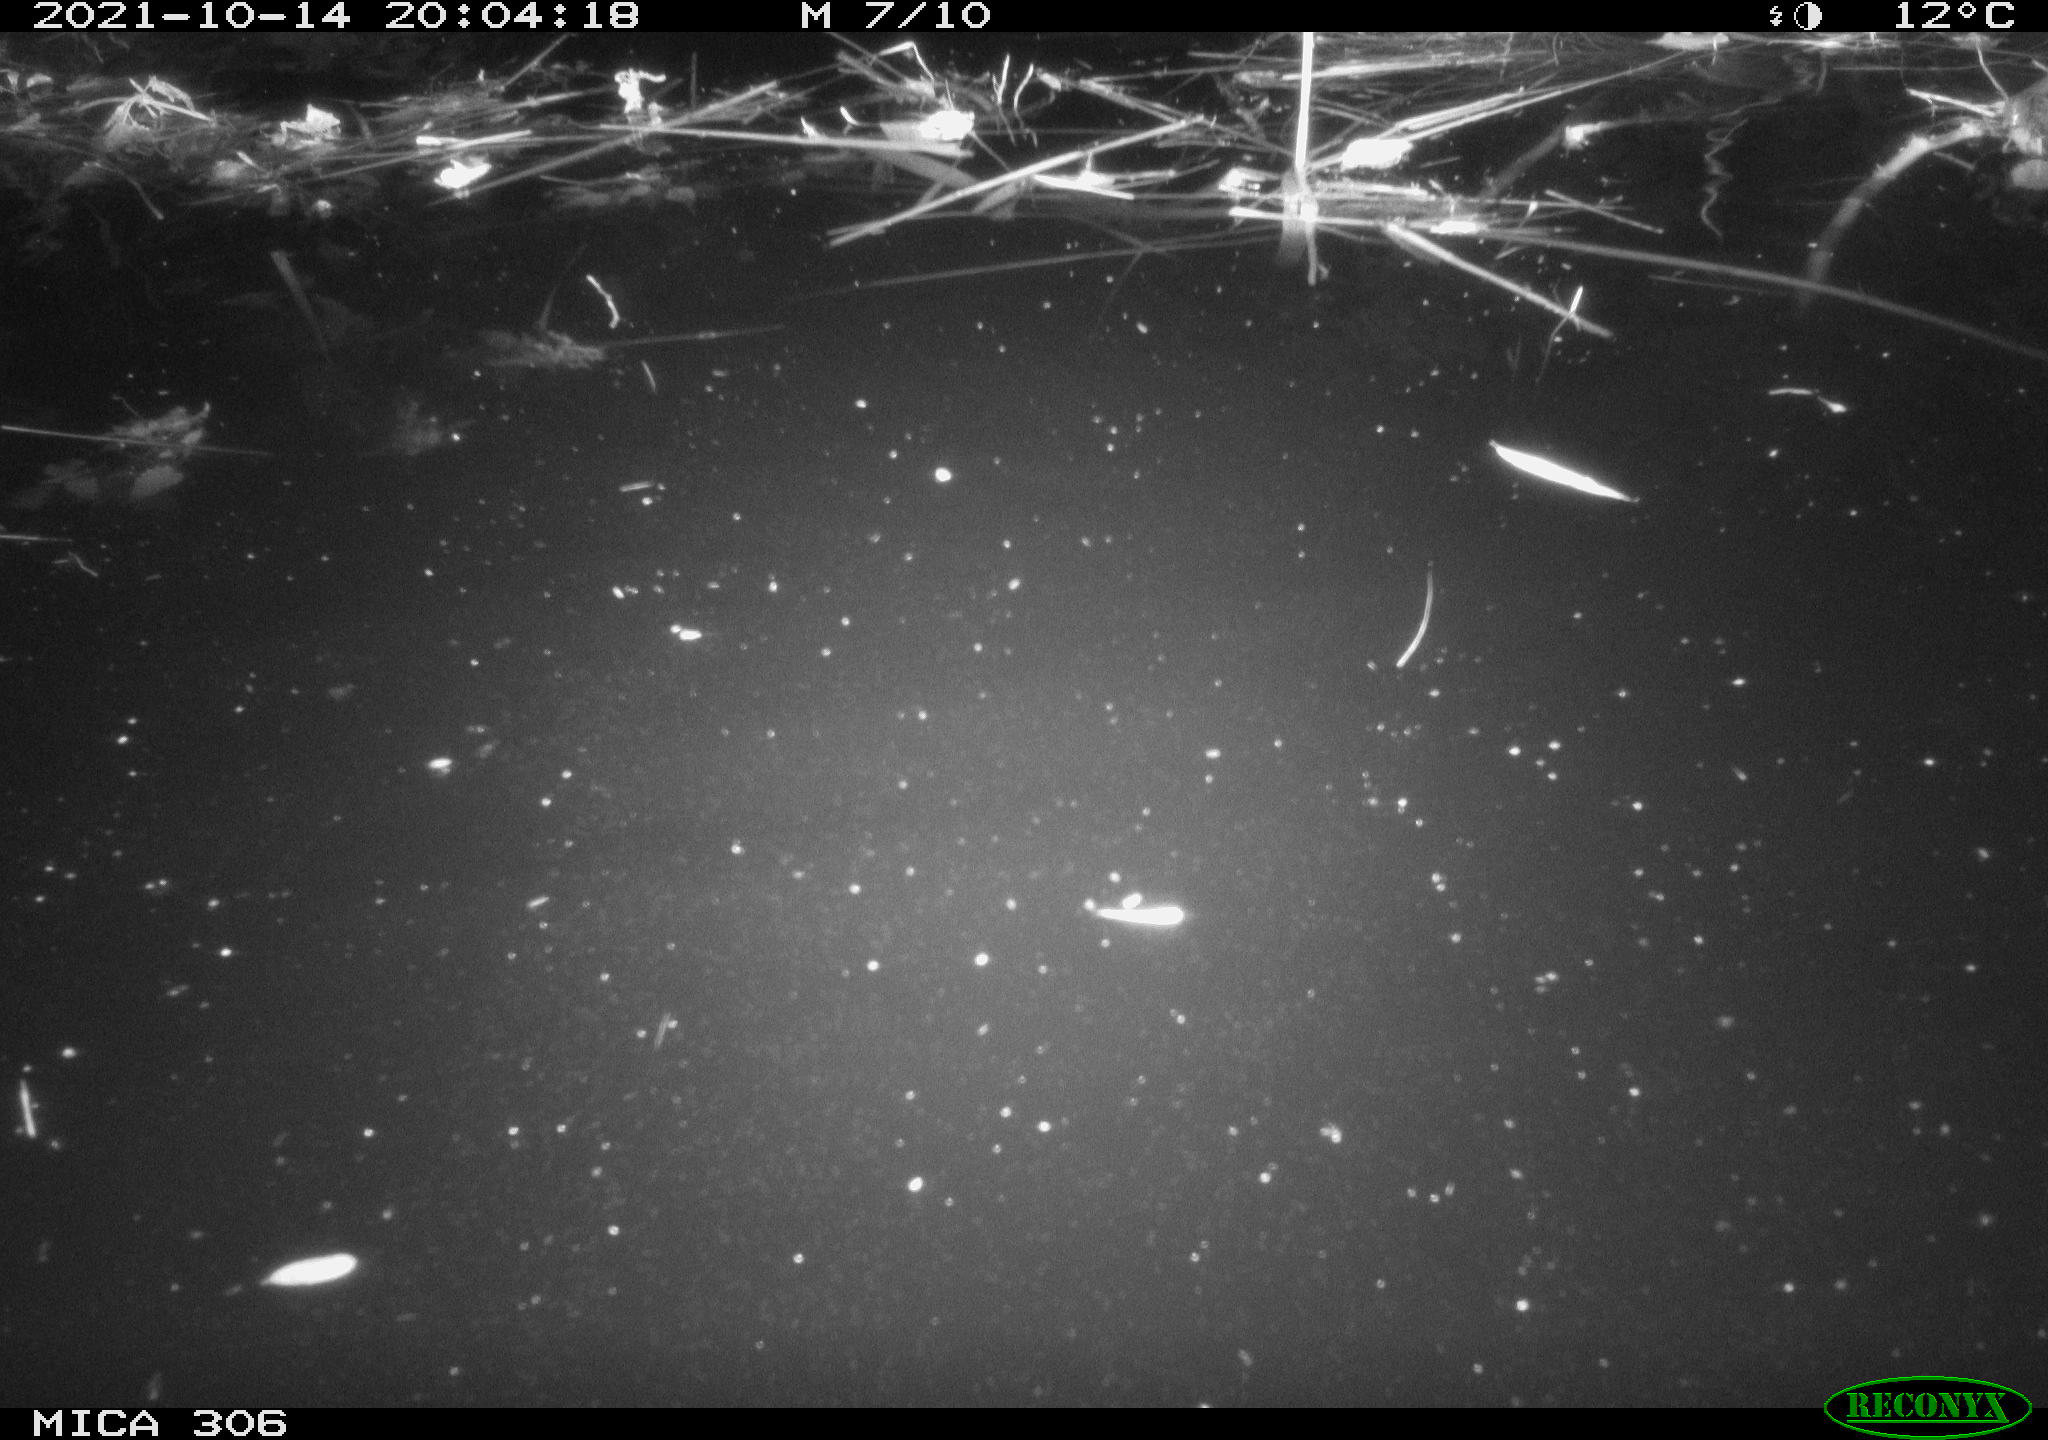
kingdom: Animalia
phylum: Chordata
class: Mammalia
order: Rodentia
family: Cricetidae
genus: Ondatra
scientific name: Ondatra zibethicus
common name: Muskrat
